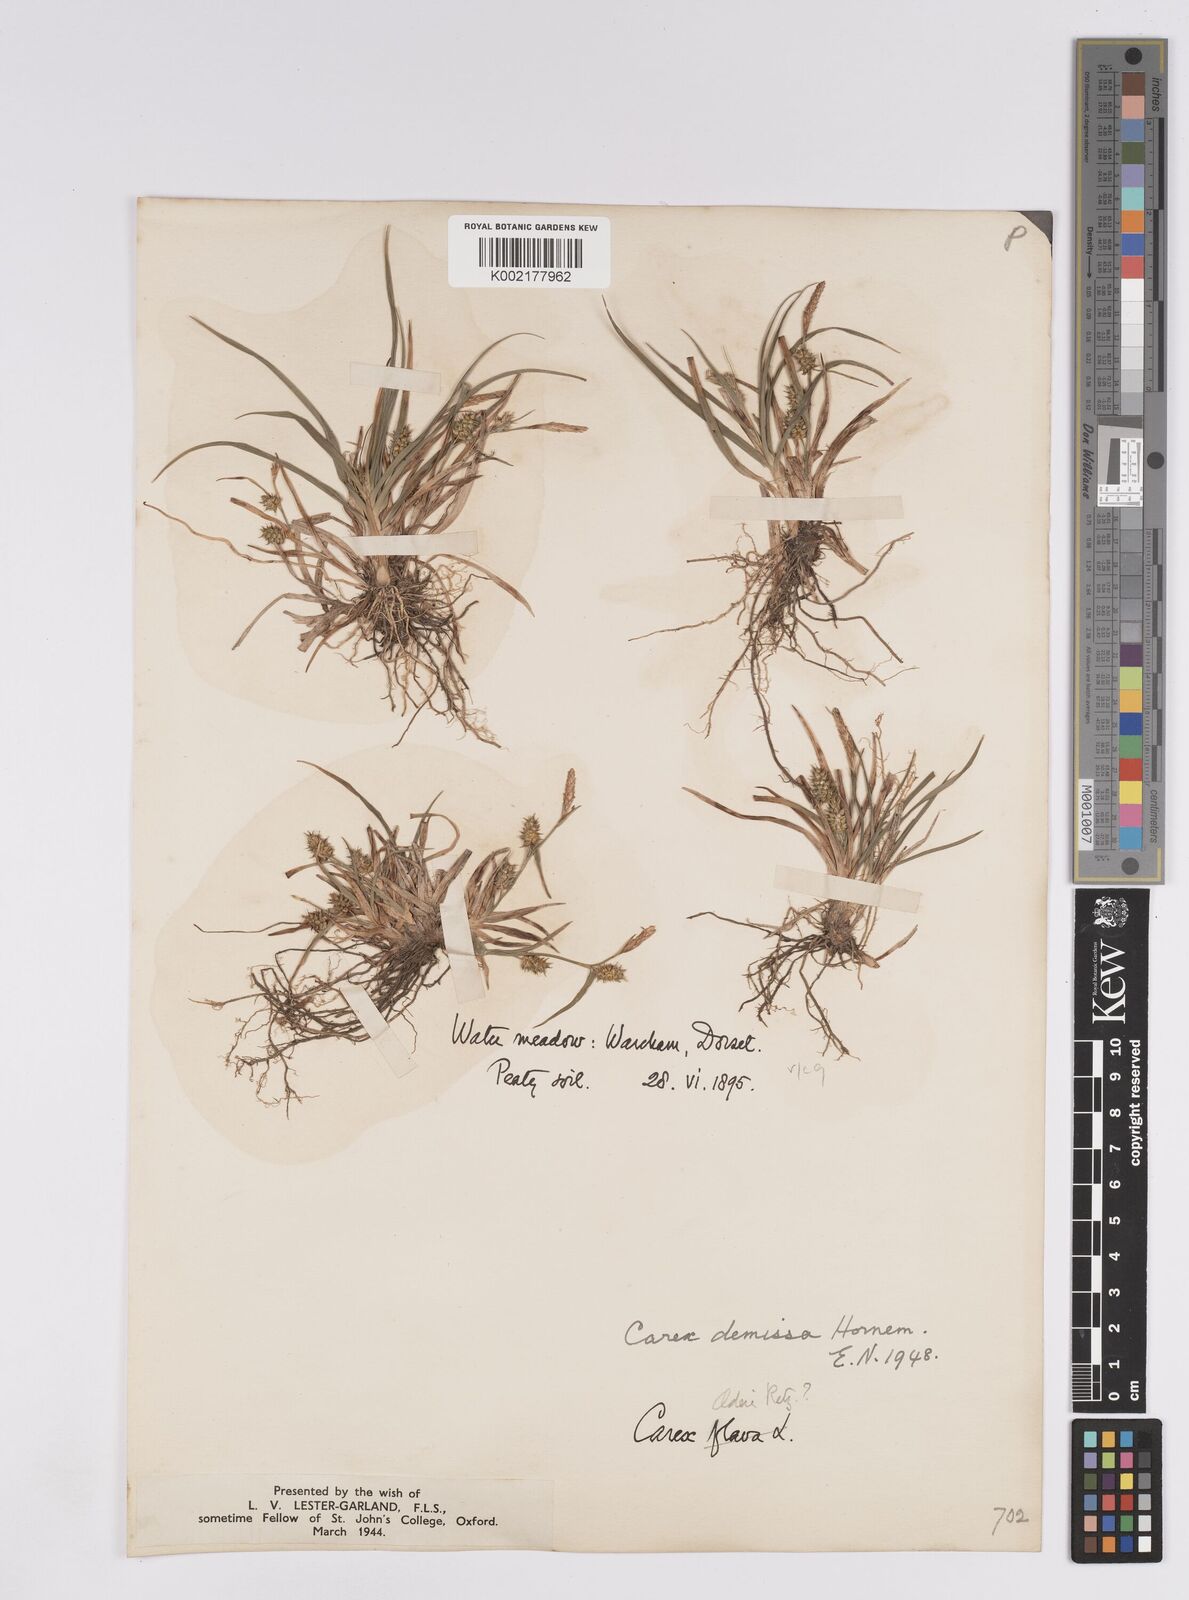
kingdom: Plantae
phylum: Tracheophyta
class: Liliopsida
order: Poales
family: Cyperaceae
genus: Carex
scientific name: Carex demissa
